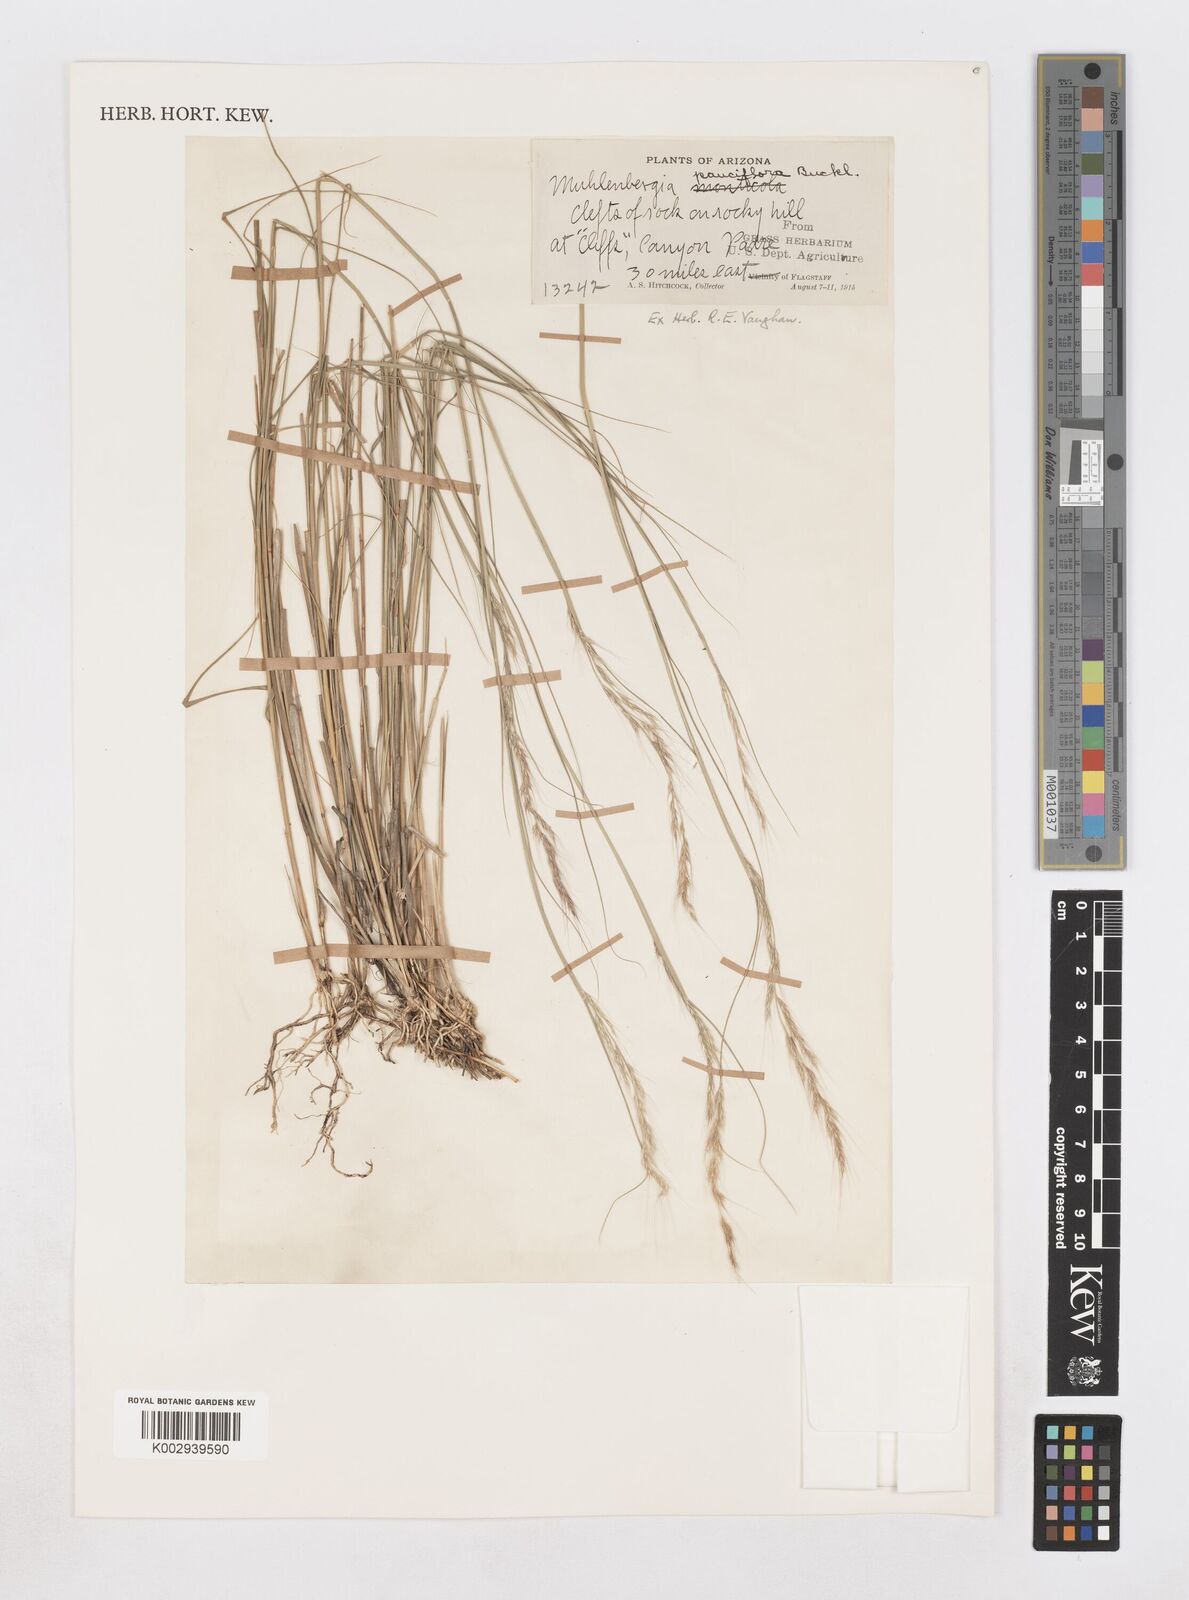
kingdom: Plantae
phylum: Tracheophyta
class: Liliopsida
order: Poales
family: Poaceae
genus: Muhlenbergia
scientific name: Muhlenbergia pauciflora
